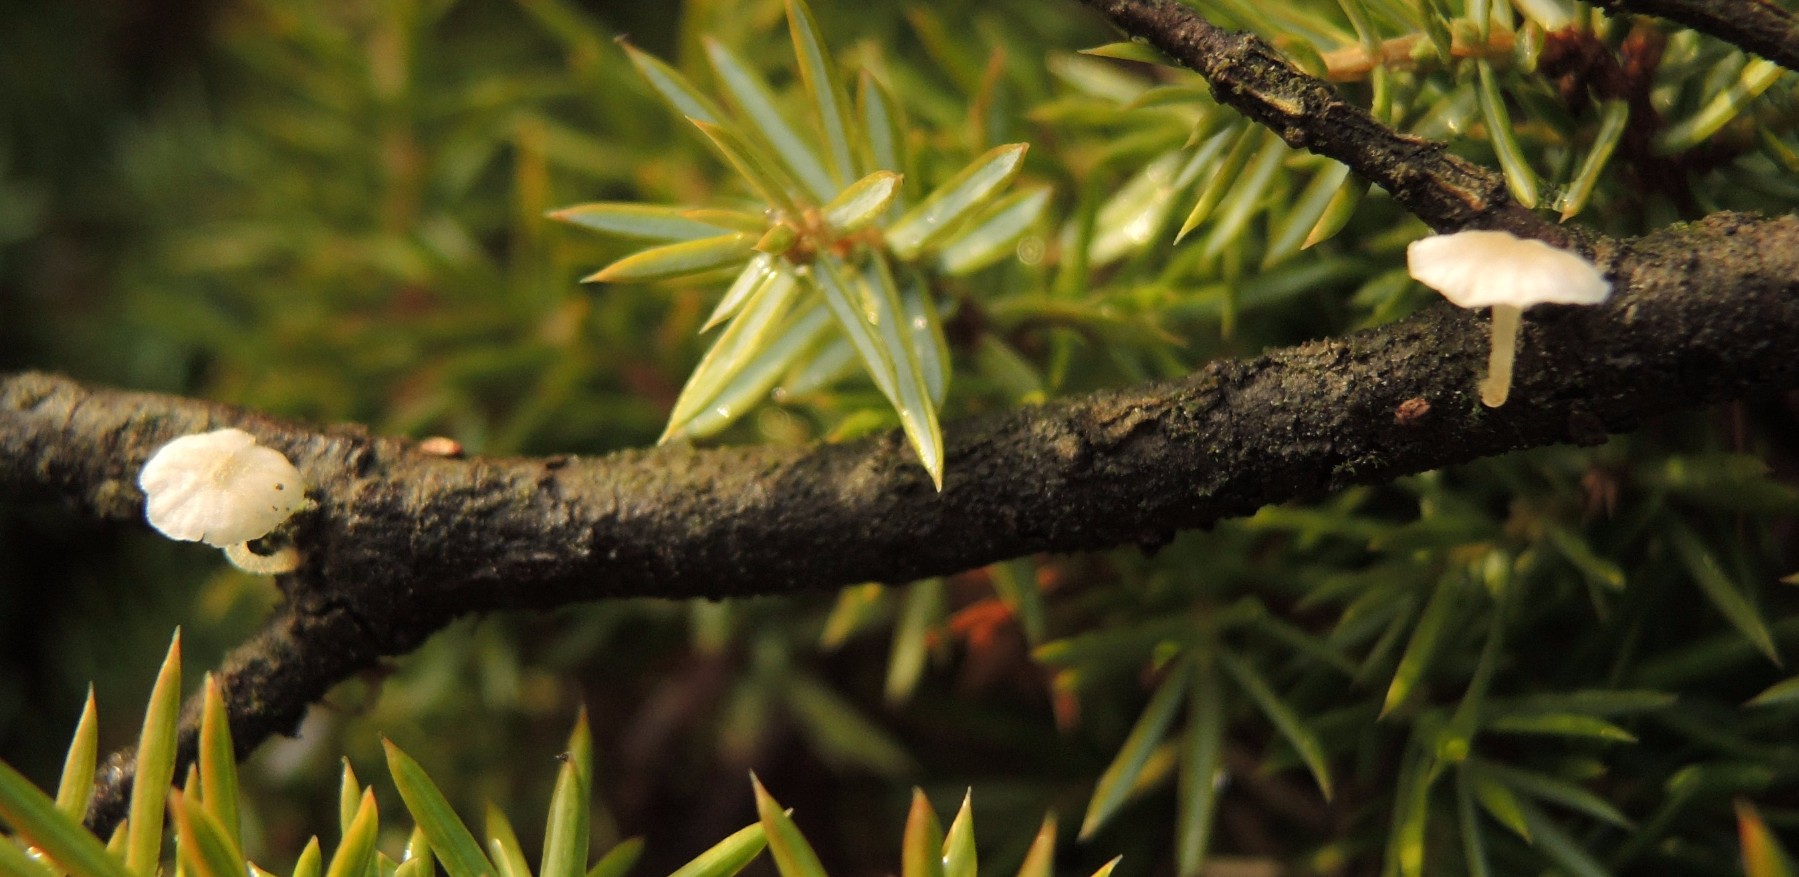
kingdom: Fungi
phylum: Basidiomycota
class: Agaricomycetes
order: Agaricales
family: Porotheleaceae
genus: Phloeomana
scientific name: Phloeomana speirea
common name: kvist-huesvamp
